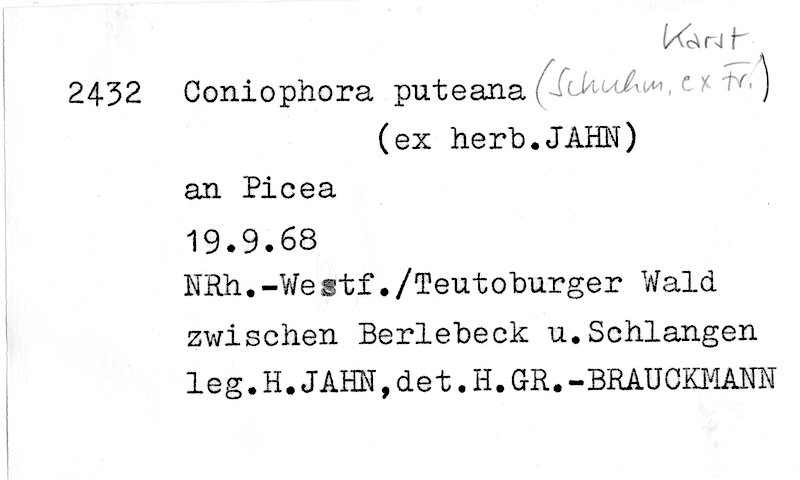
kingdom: Plantae
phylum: Tracheophyta
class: Pinopsida
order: Pinales
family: Pinaceae
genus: Picea
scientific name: Picea
